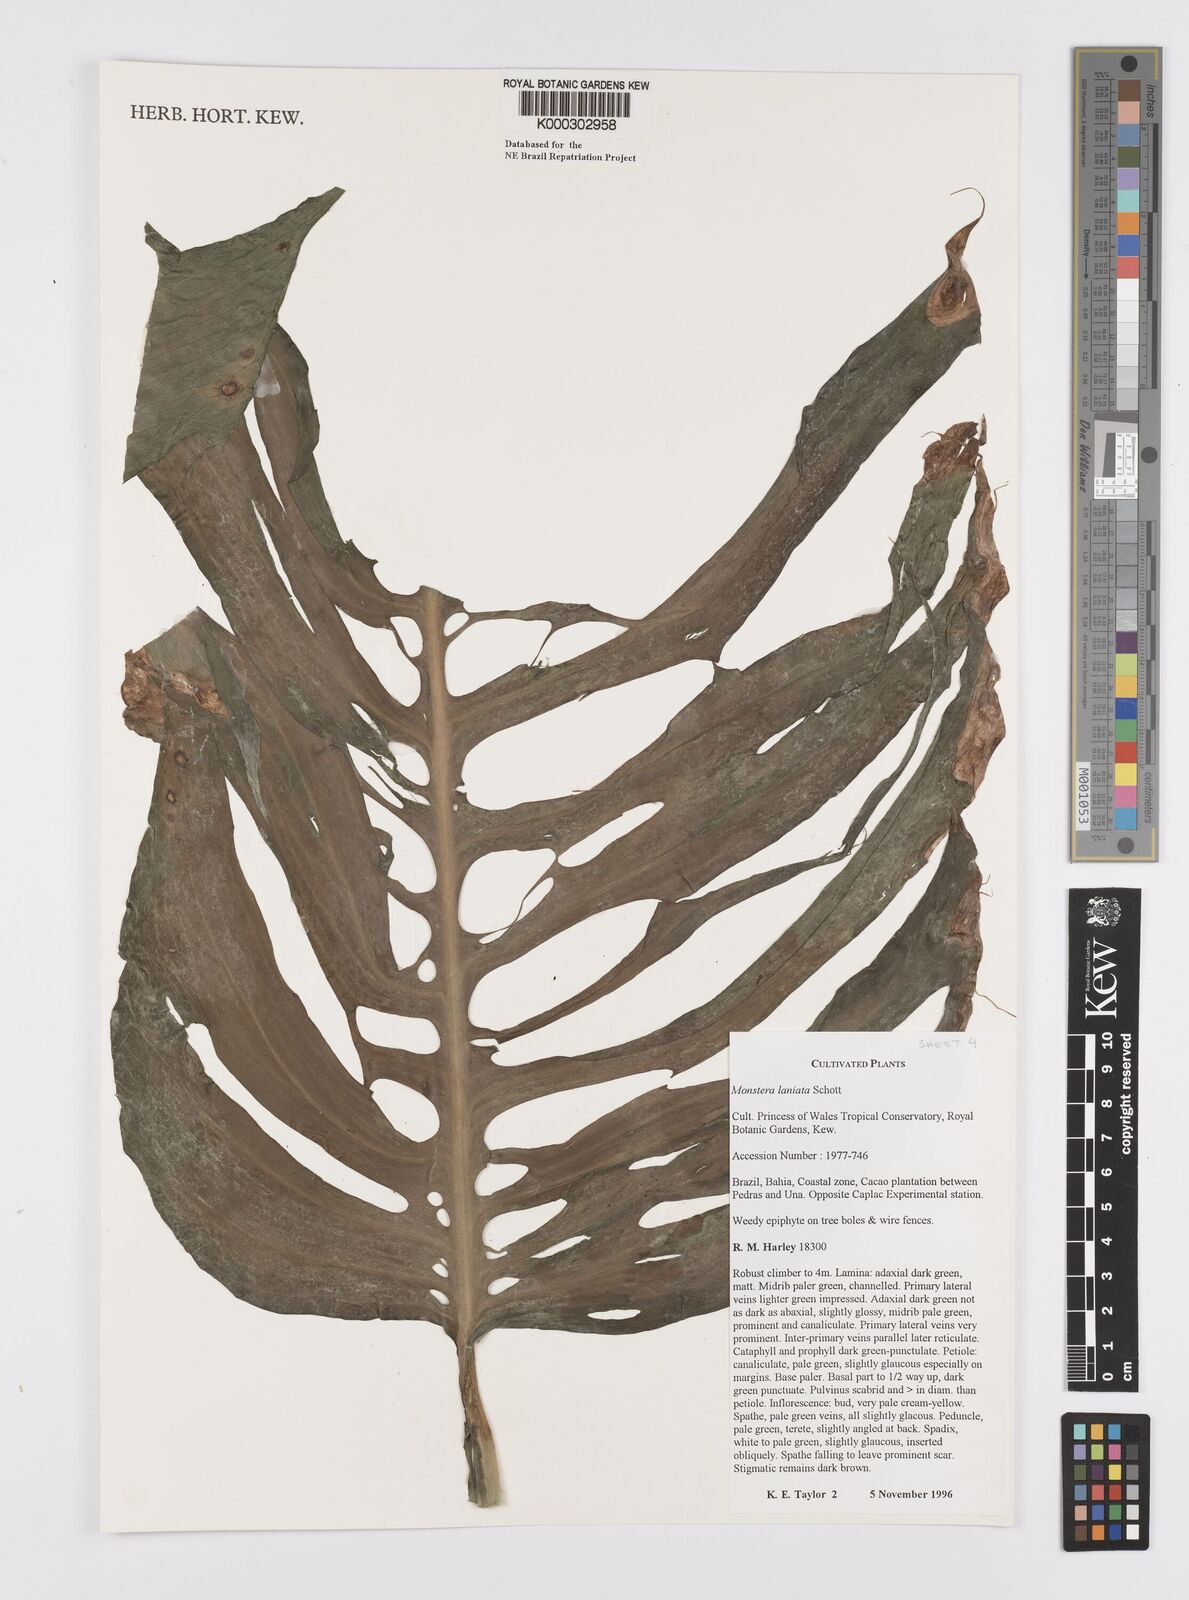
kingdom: Plantae
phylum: Tracheophyta
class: Liliopsida
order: Alismatales
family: Araceae
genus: Monstera
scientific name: Monstera adansonii
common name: Tarovine
